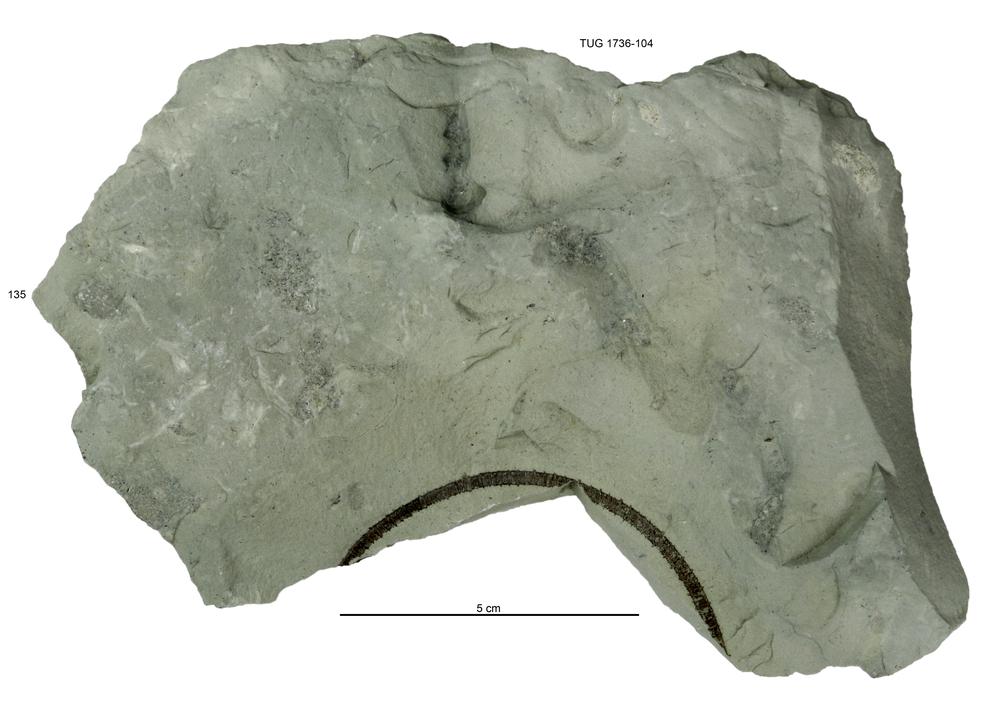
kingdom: Animalia
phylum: Echinodermata
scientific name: Echinodermata
